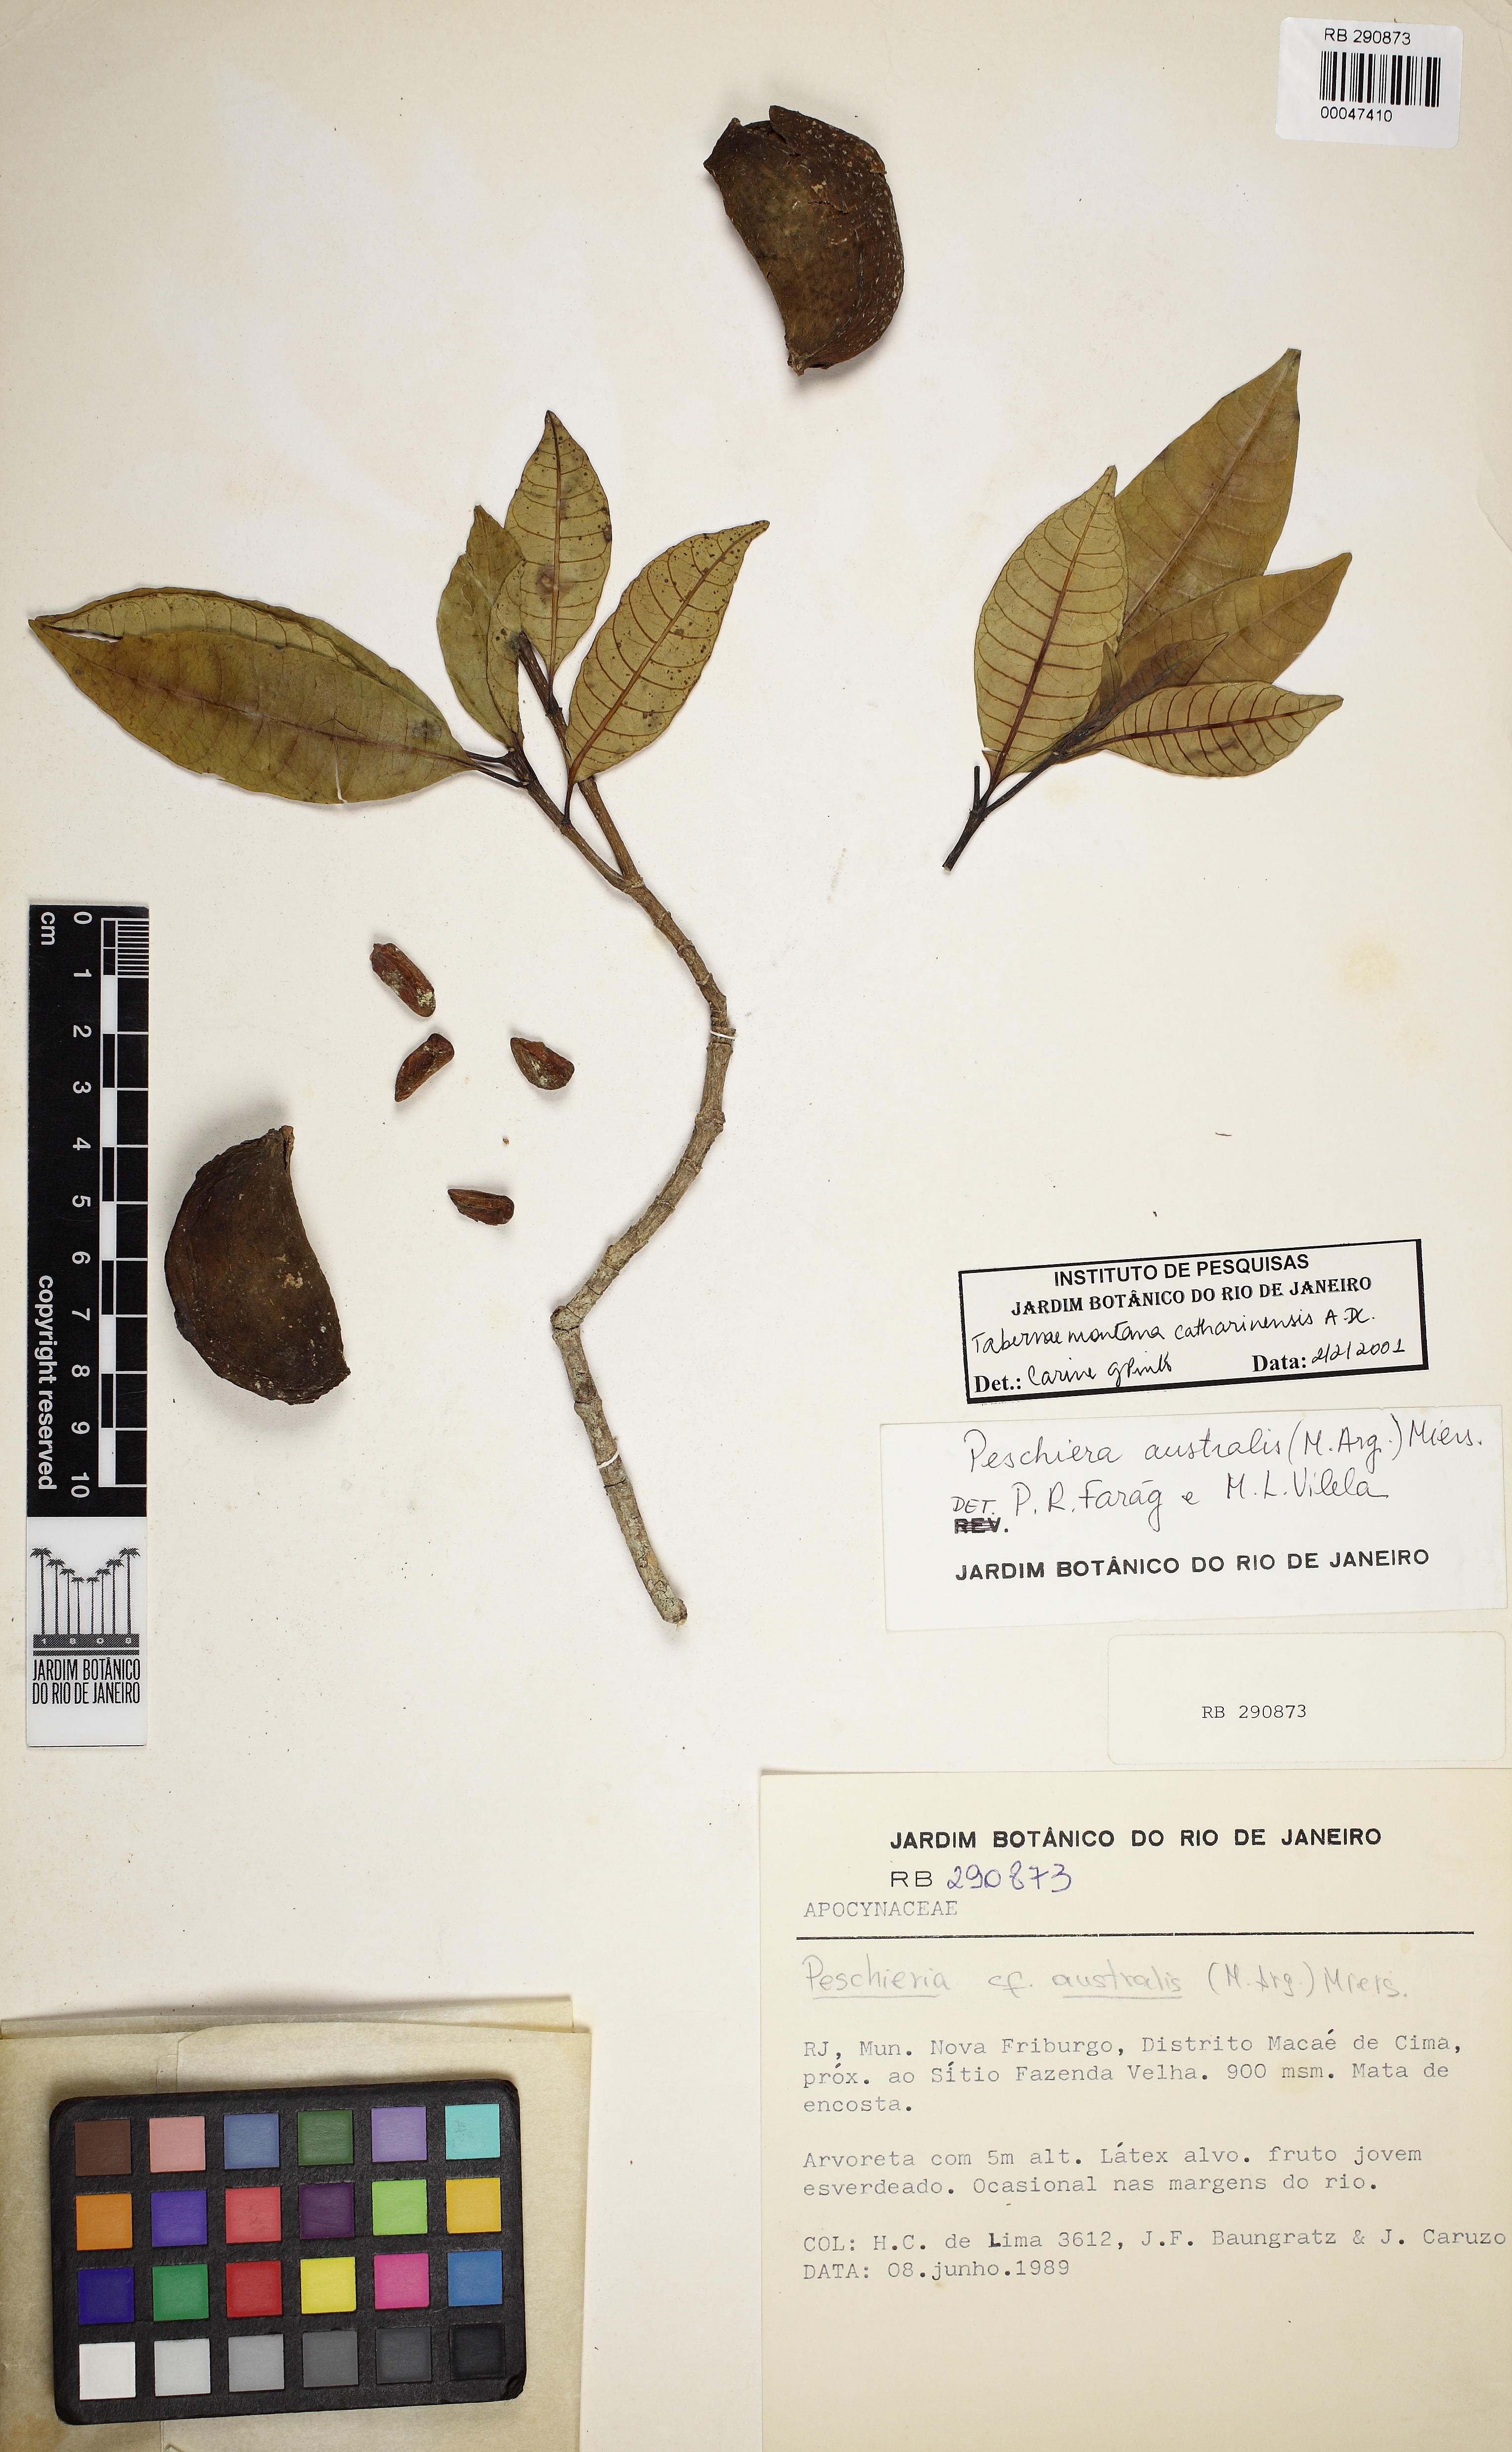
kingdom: Plantae
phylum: Tracheophyta
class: Magnoliopsida
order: Gentianales
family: Apocynaceae
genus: Tabernaemontana
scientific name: Tabernaemontana catharinensis
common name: Pinwheel-flower
